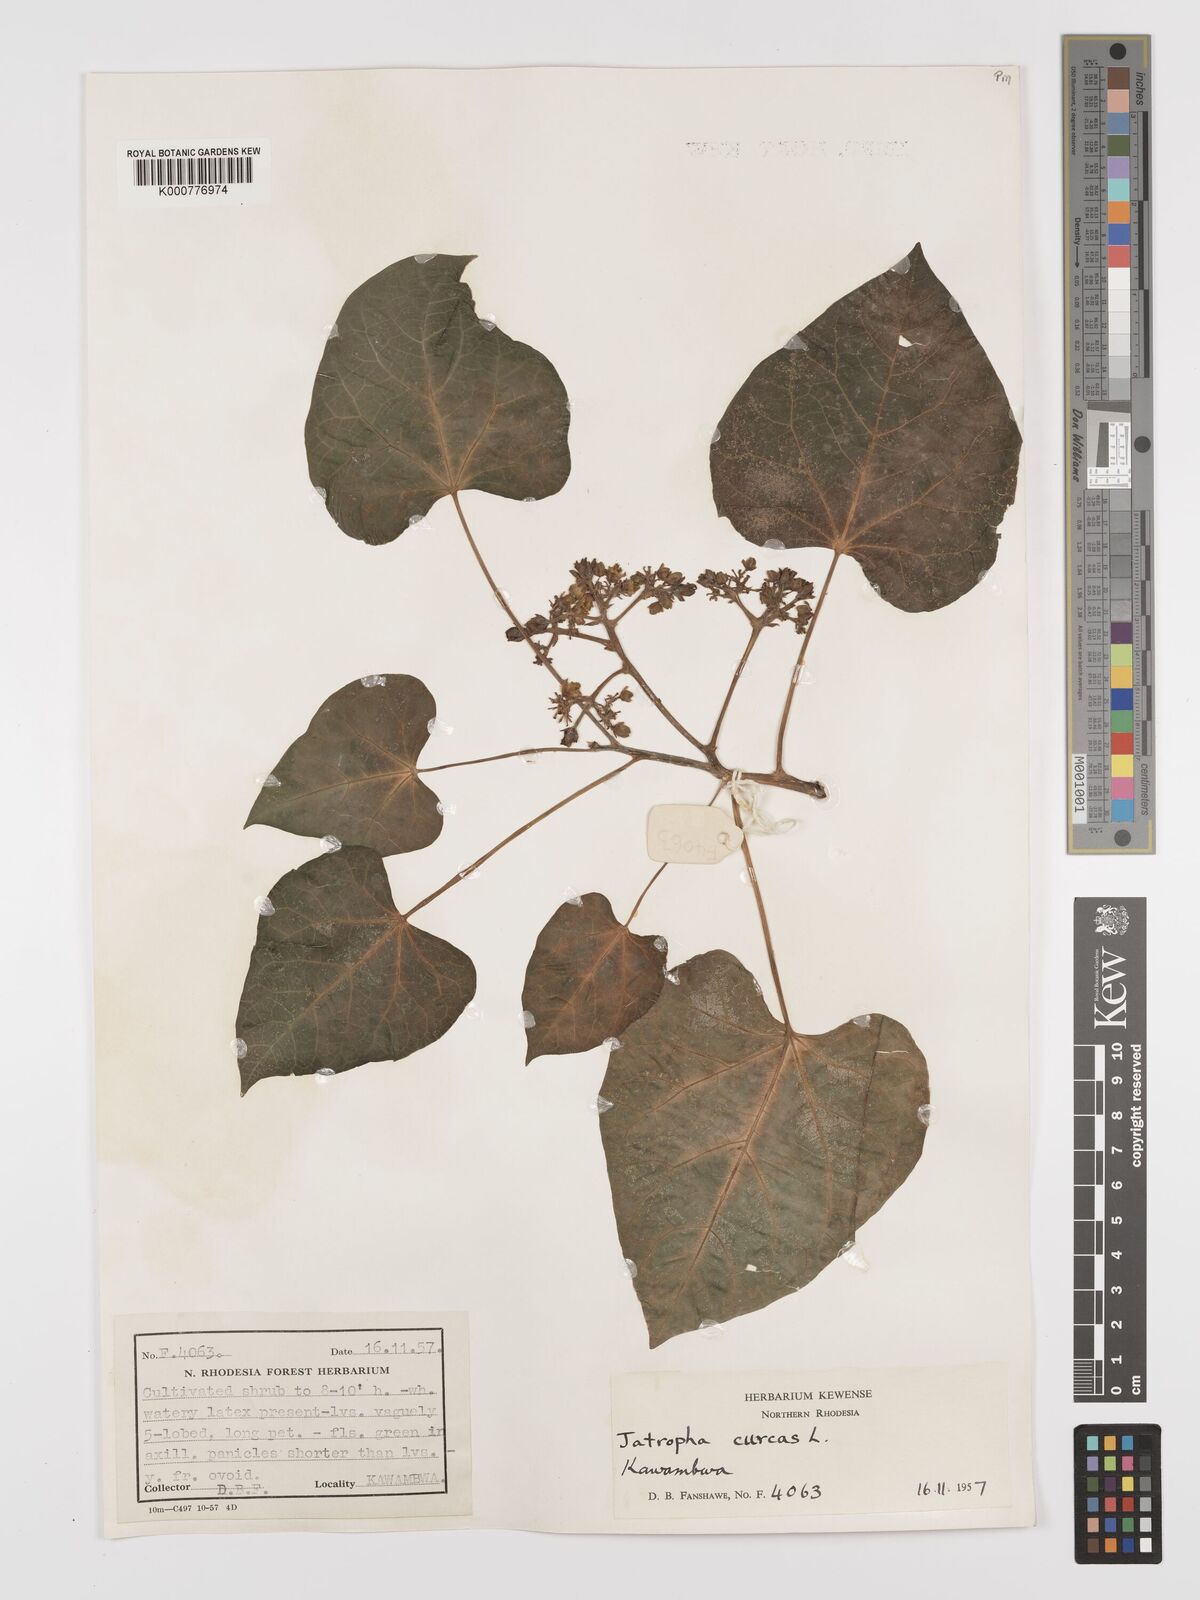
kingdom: Plantae
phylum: Tracheophyta
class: Magnoliopsida
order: Malpighiales
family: Euphorbiaceae
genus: Jatropha
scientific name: Jatropha curcas
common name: Barbados nut
